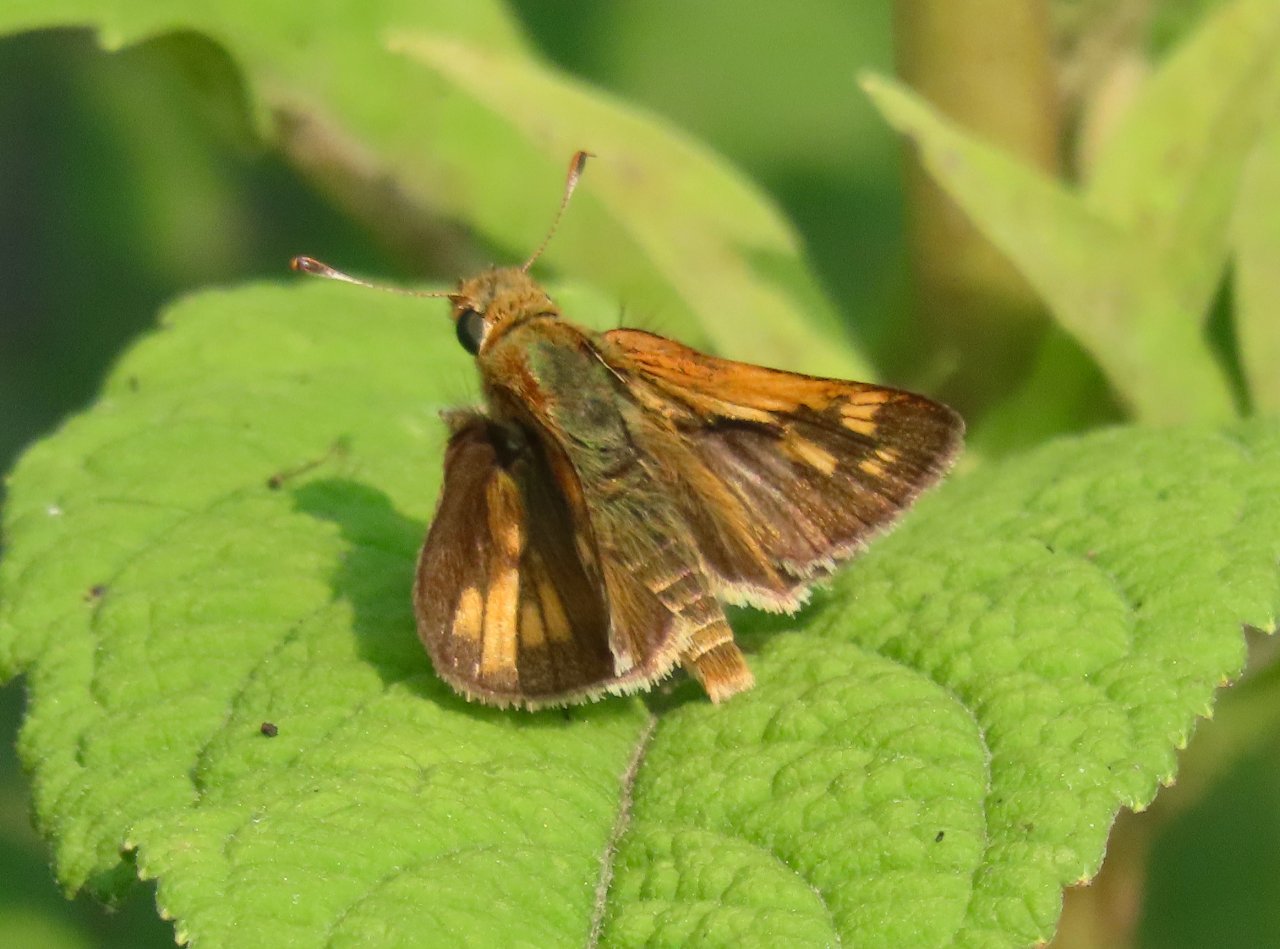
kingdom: Animalia
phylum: Arthropoda
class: Insecta
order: Lepidoptera
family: Hesperiidae
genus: Polites
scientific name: Polites coras
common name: Peck's Skipper
